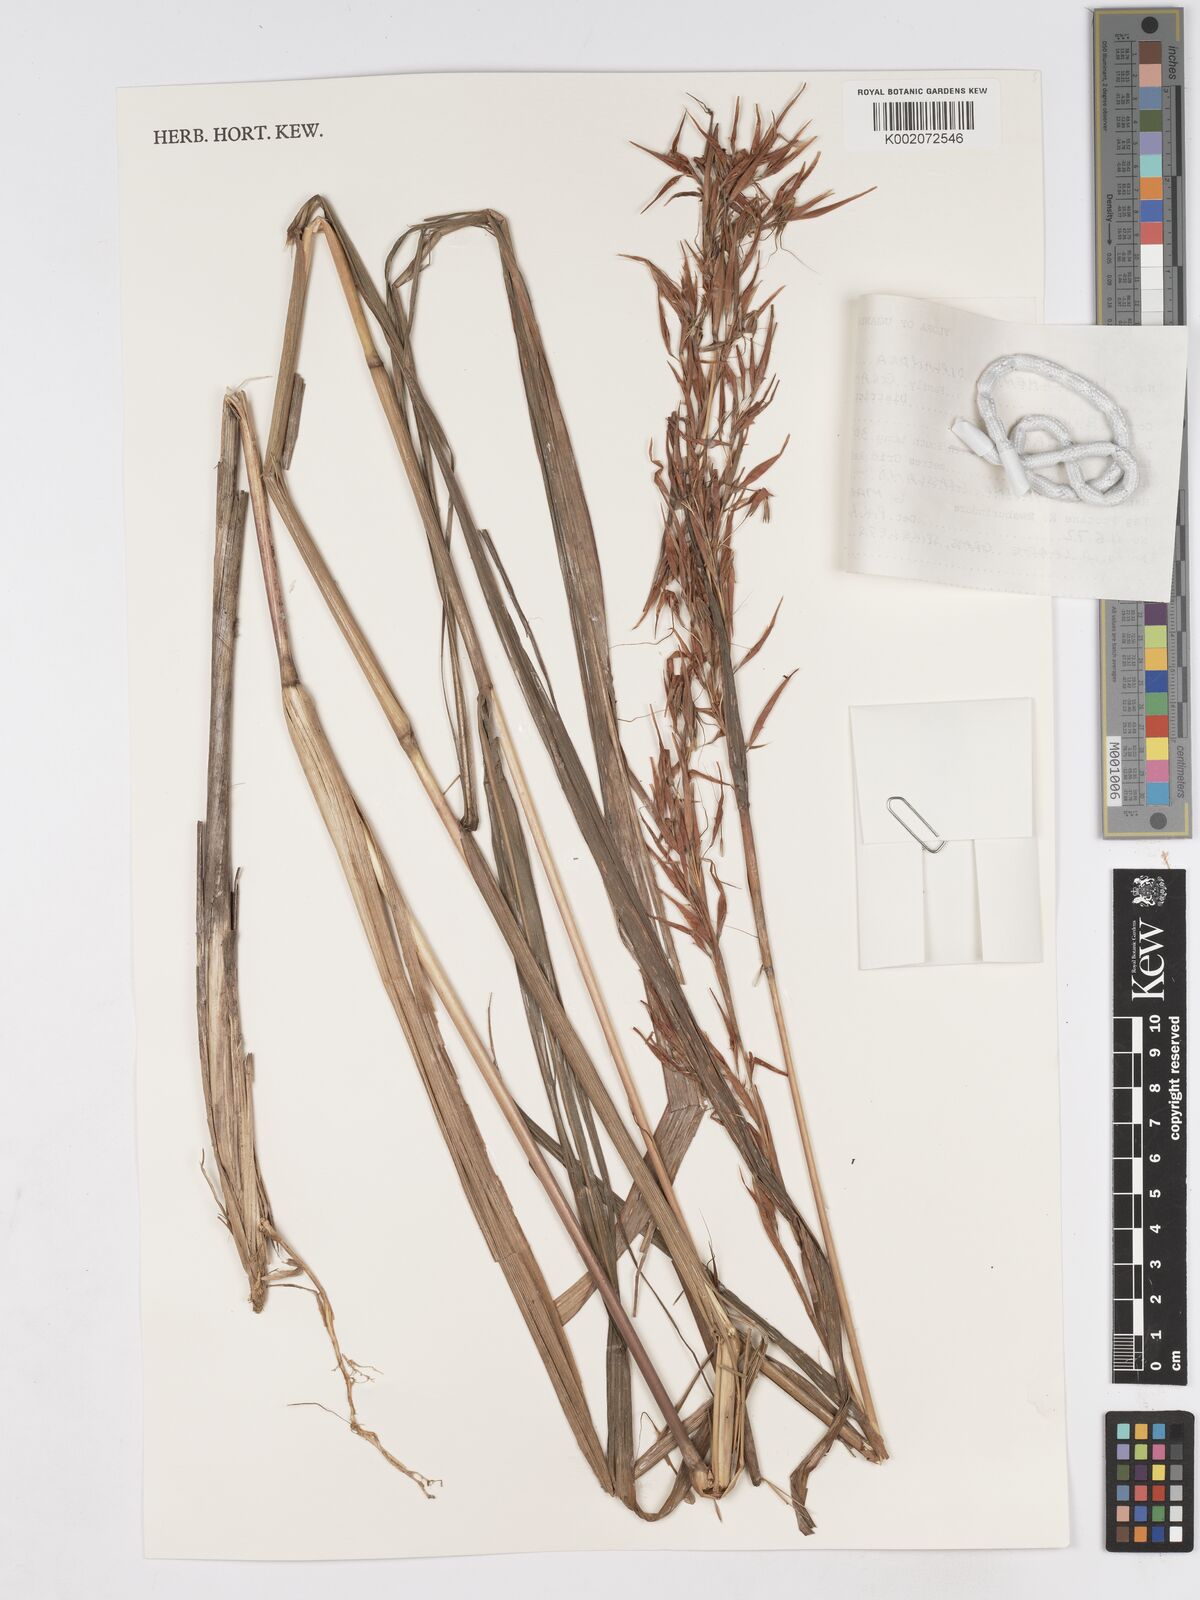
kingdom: Plantae
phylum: Tracheophyta
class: Liliopsida
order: Poales
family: Poaceae
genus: Hyparrhenia
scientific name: Hyparrhenia diplandra
